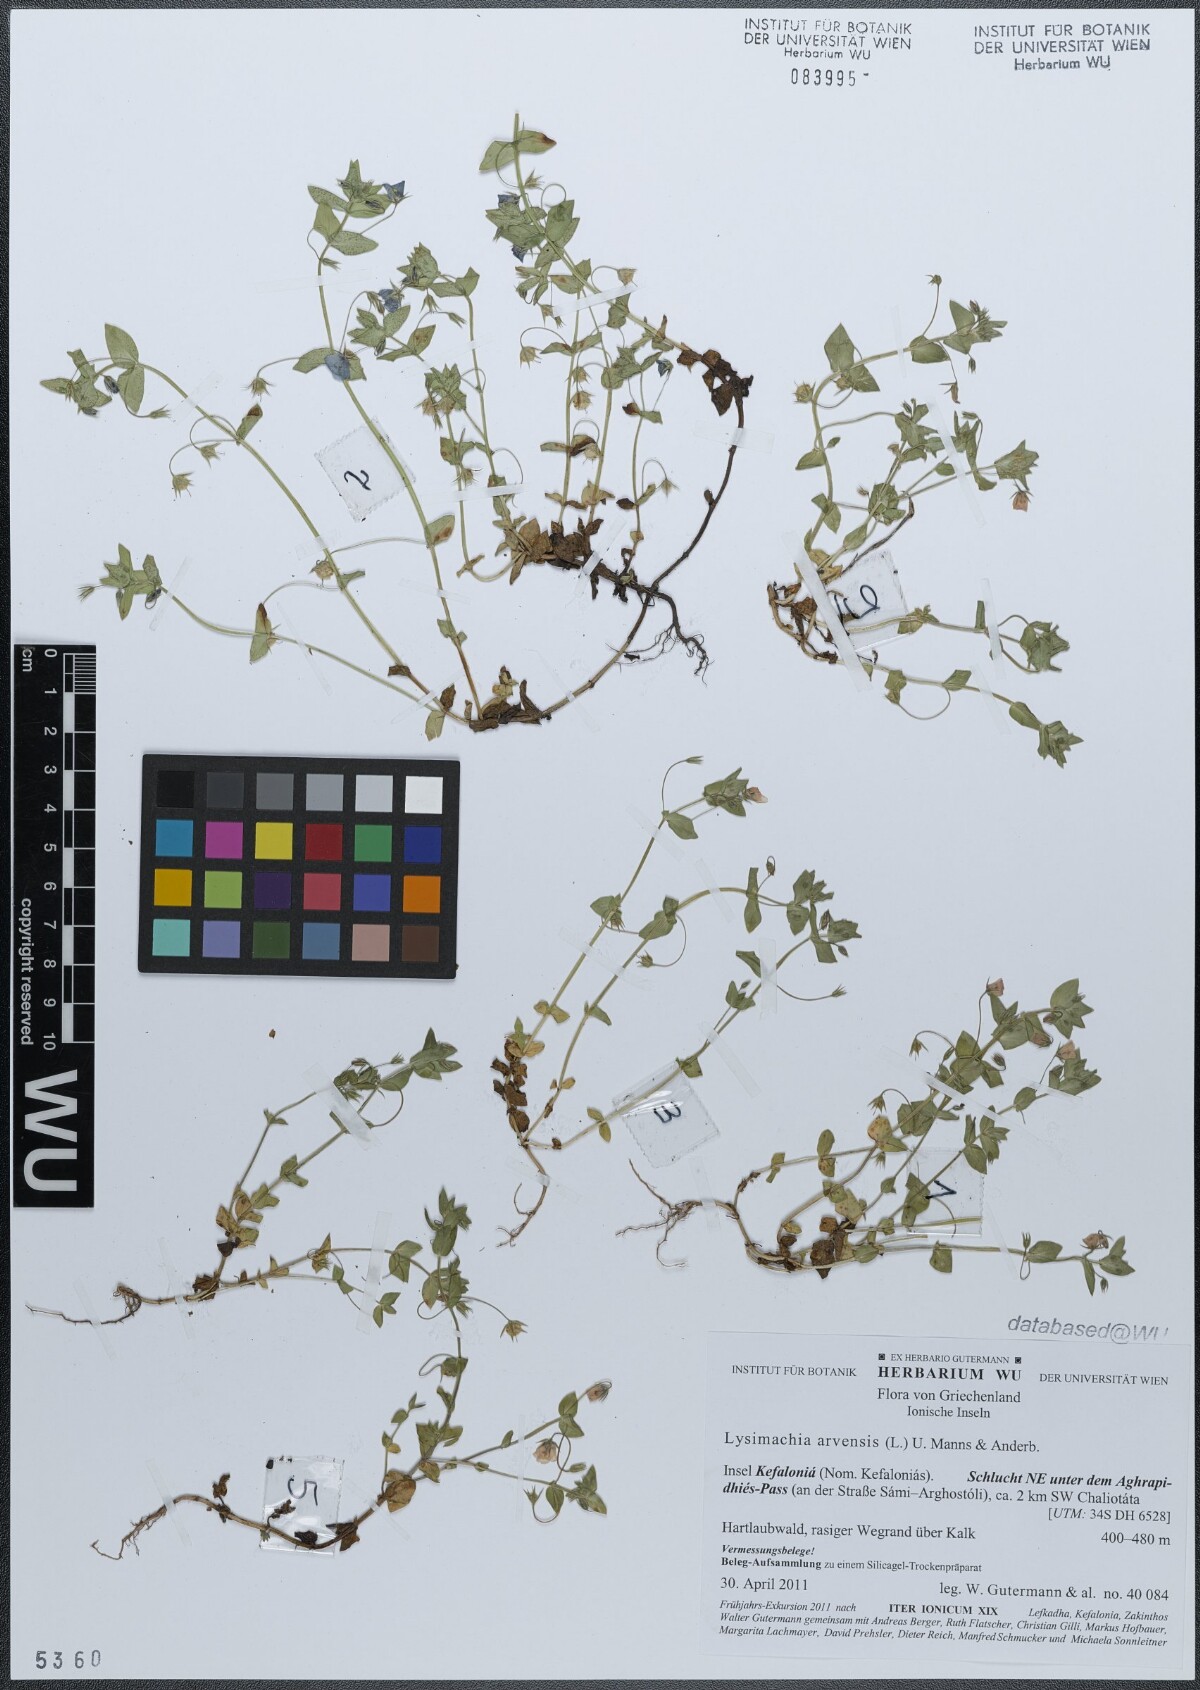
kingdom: Plantae
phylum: Tracheophyta
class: Magnoliopsida
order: Ericales
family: Primulaceae
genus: Lysimachia
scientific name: Lysimachia arvensis
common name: Scarlet pimpernel
